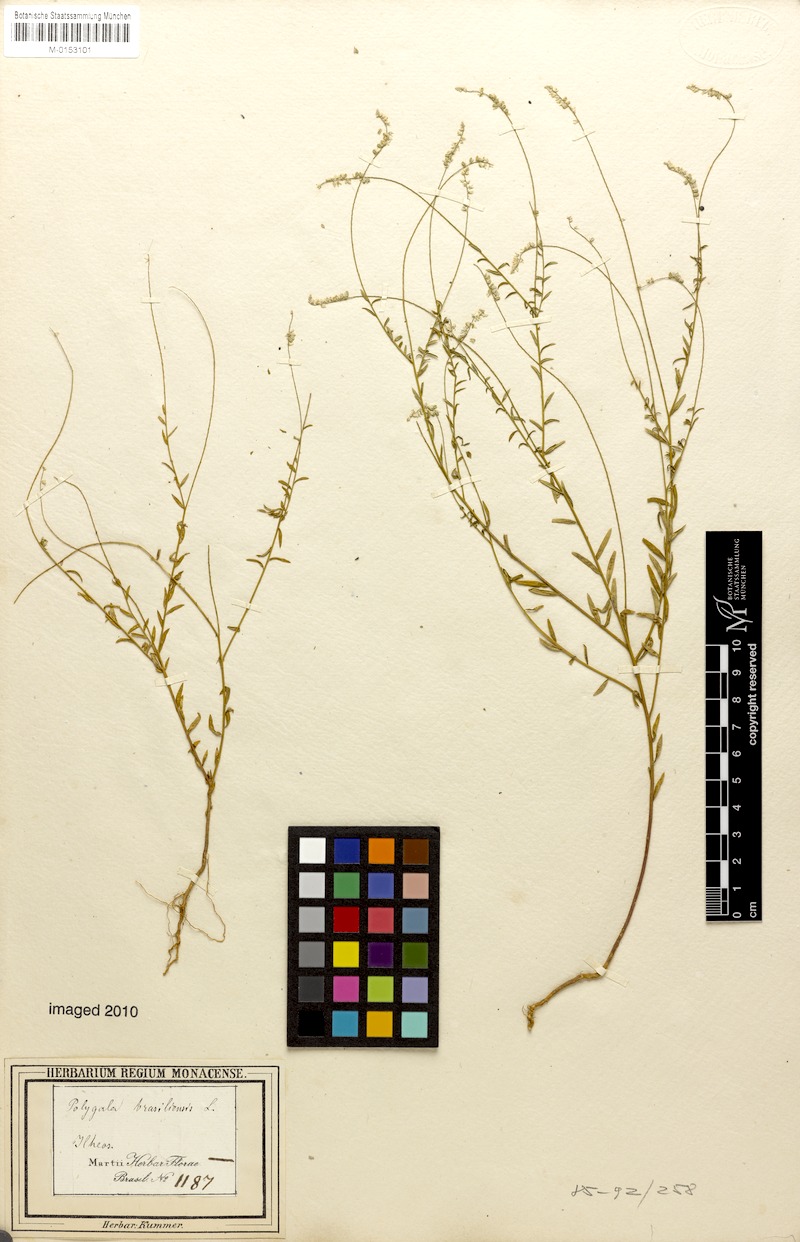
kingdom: Plantae
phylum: Tracheophyta
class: Magnoliopsida
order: Fabales
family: Polygalaceae
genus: Polygala
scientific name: Polygala brasiliensis
